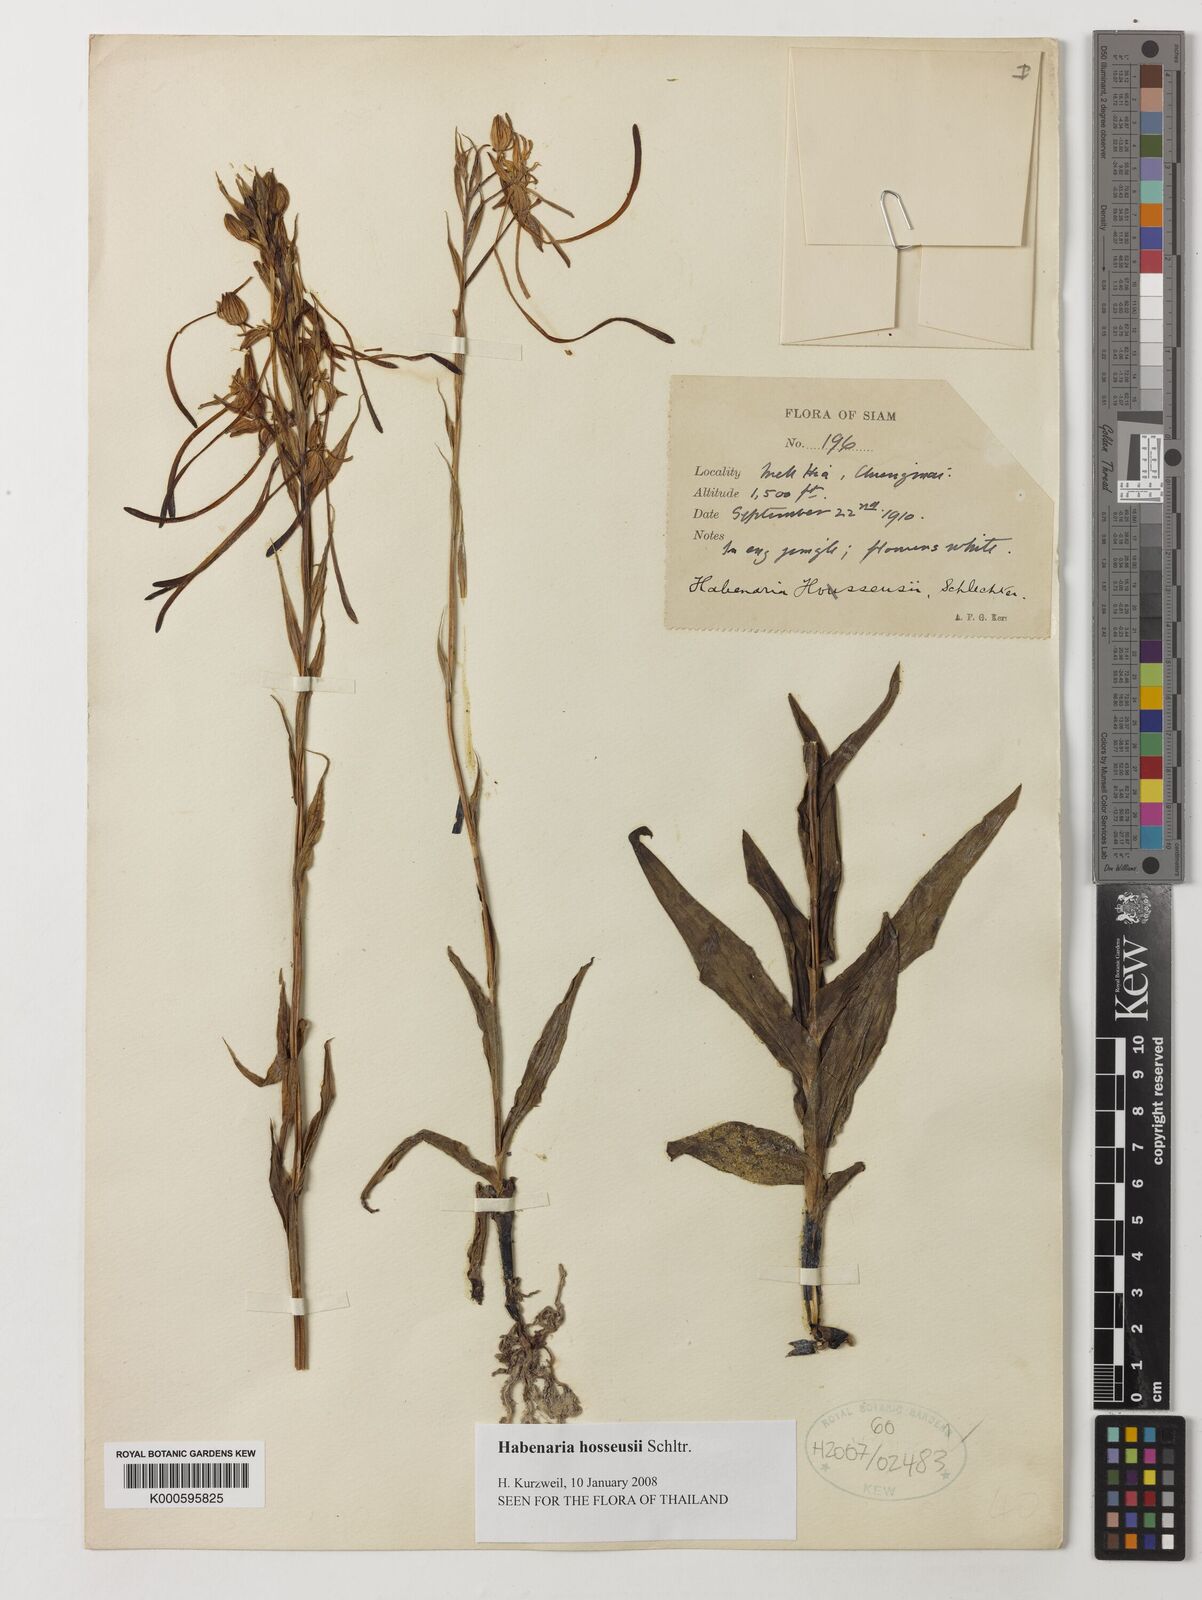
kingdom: Plantae
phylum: Tracheophyta
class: Liliopsida
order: Asparagales
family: Orchidaceae
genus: Habenaria
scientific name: Habenaria hosseusii
